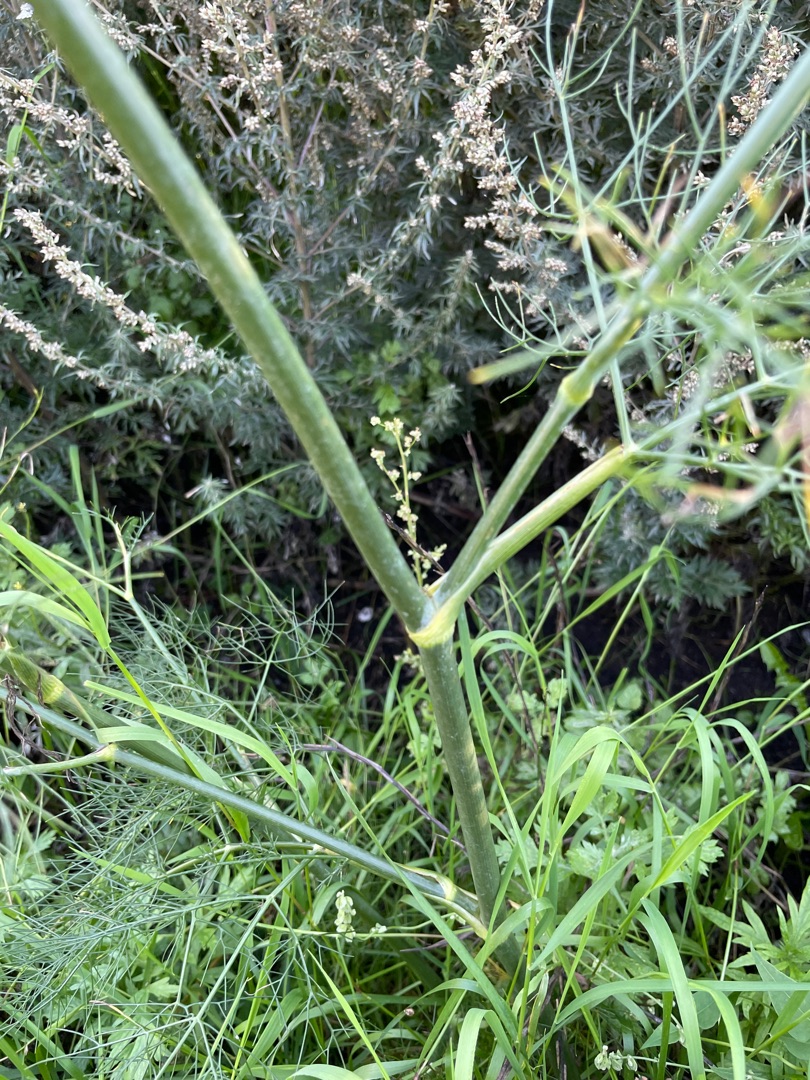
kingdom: Plantae
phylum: Tracheophyta
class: Magnoliopsida
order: Apiales
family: Apiaceae
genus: Foeniculum
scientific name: Foeniculum vulgare
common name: Fennikel
